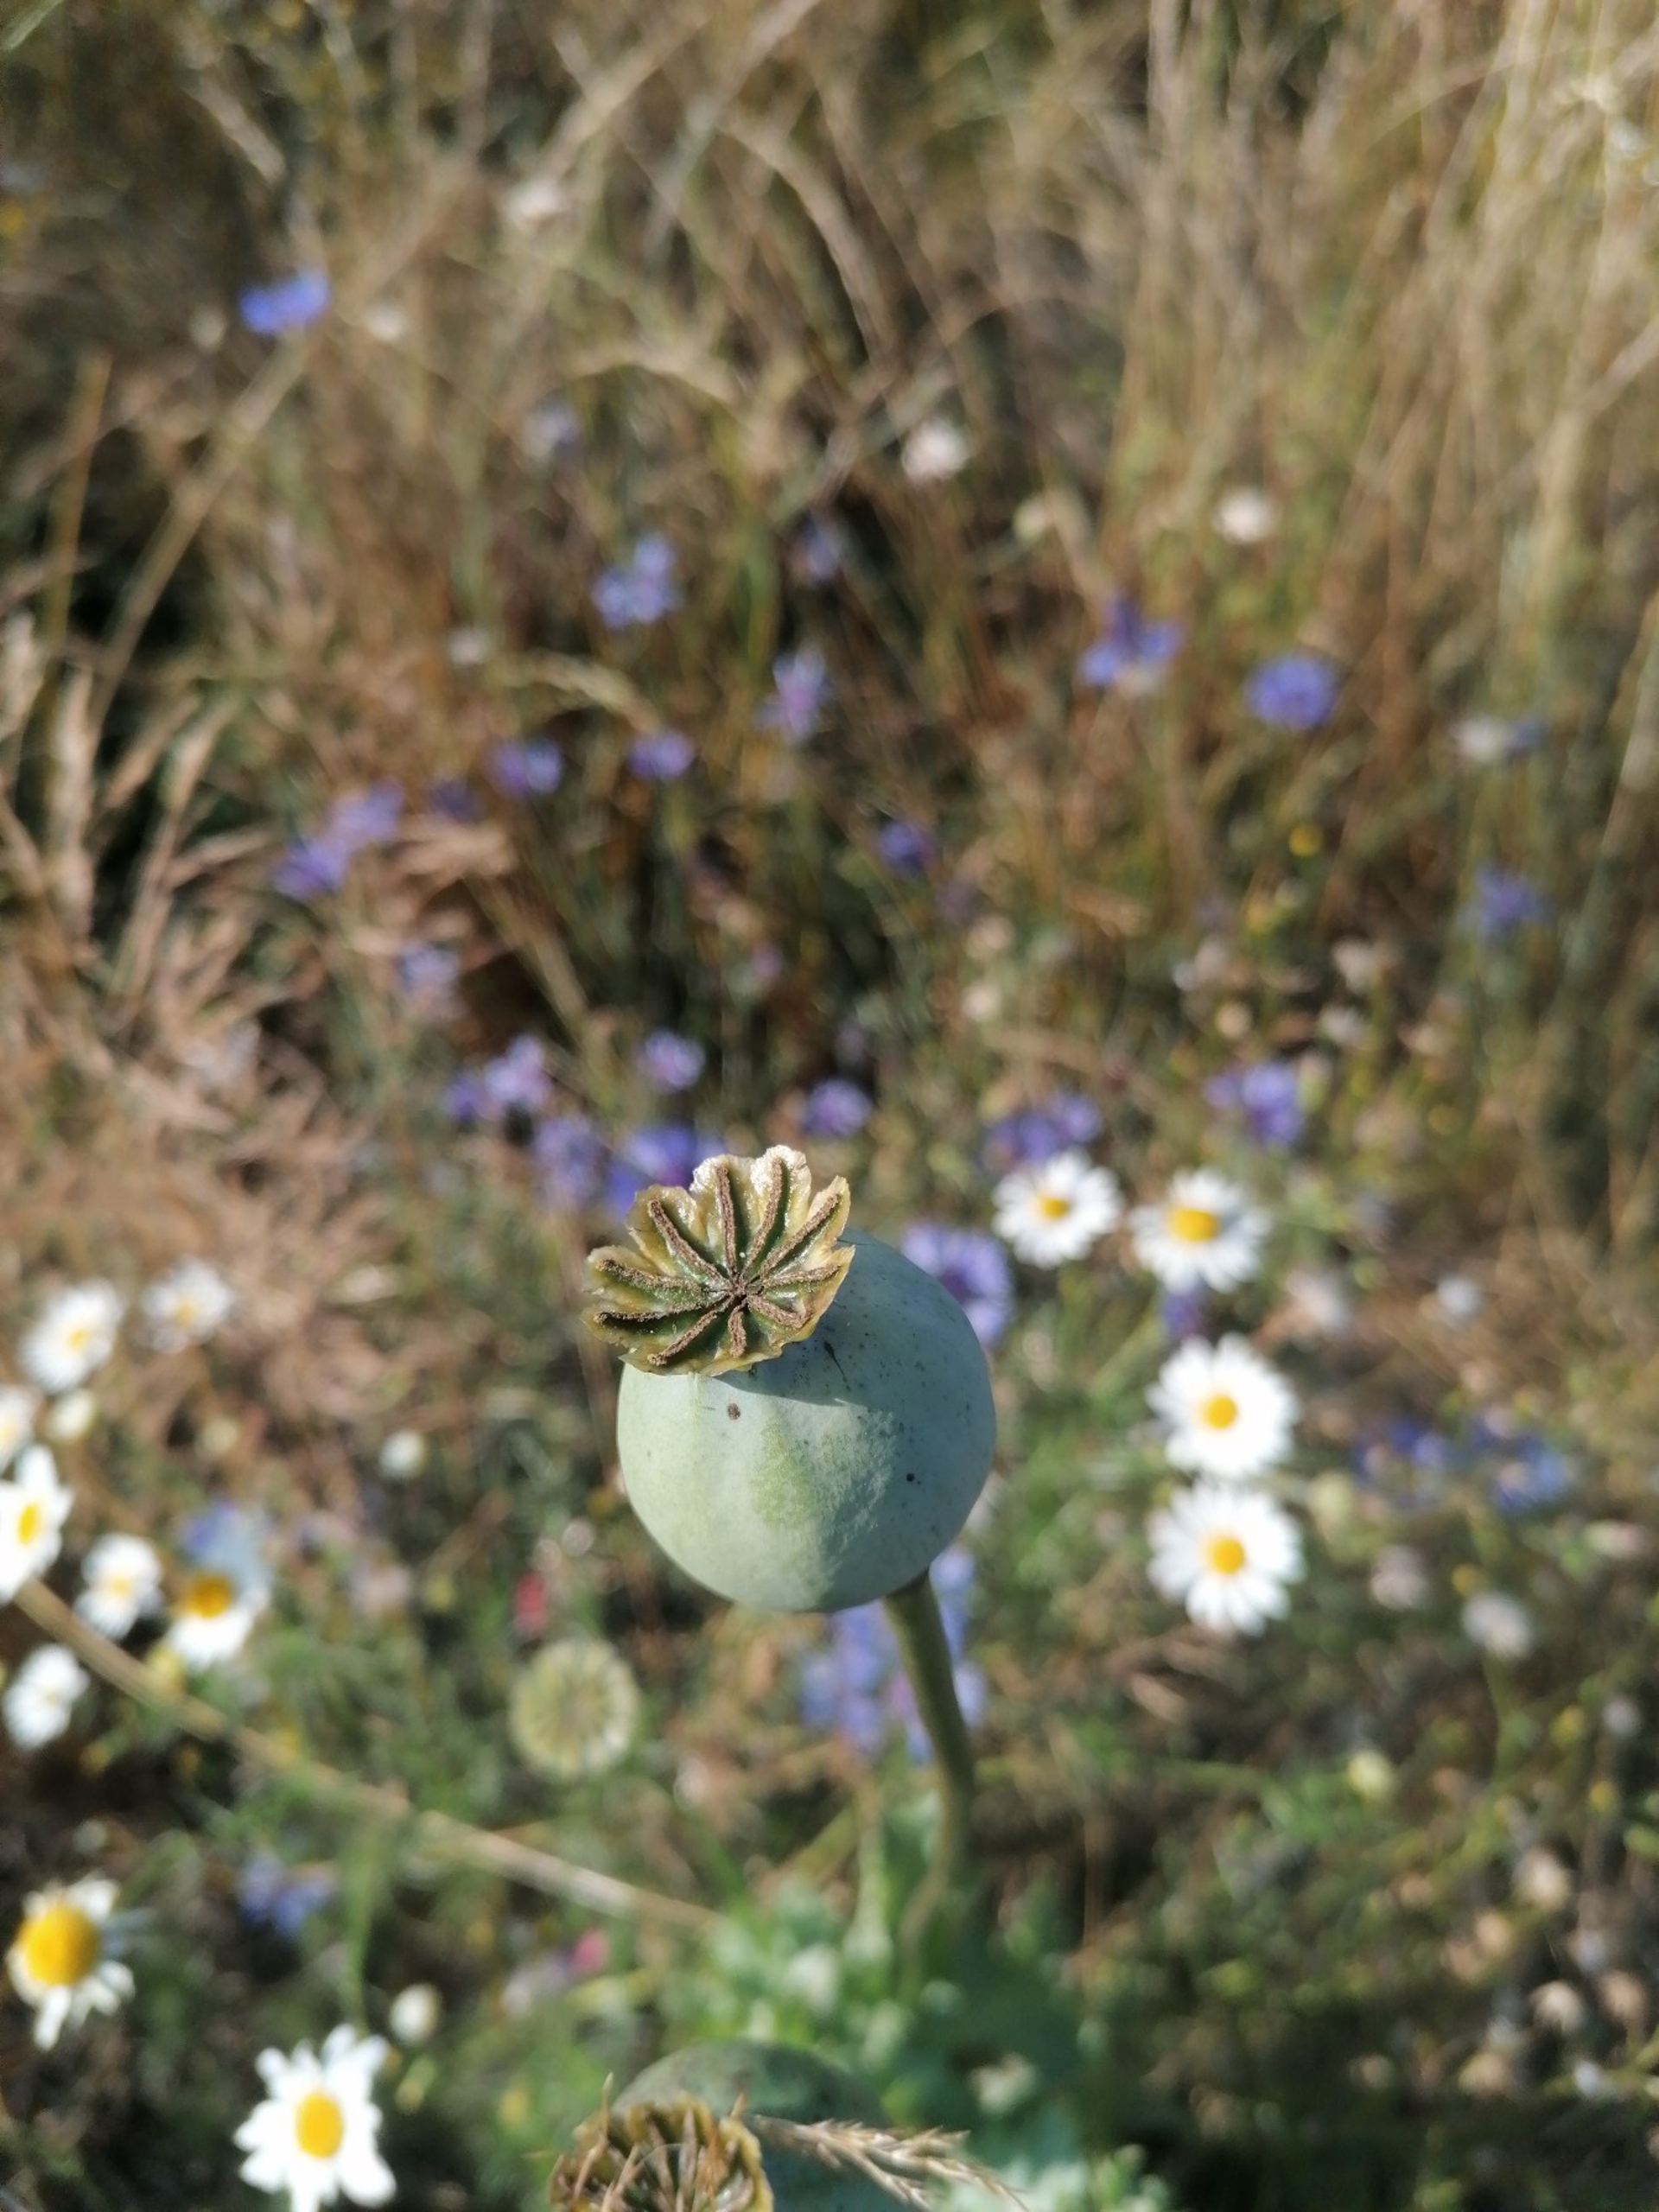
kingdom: Plantae
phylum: Tracheophyta
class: Magnoliopsida
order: Ranunculales
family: Papaveraceae
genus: Papaver
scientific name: Papaver somniferum
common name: Opium-valmue
